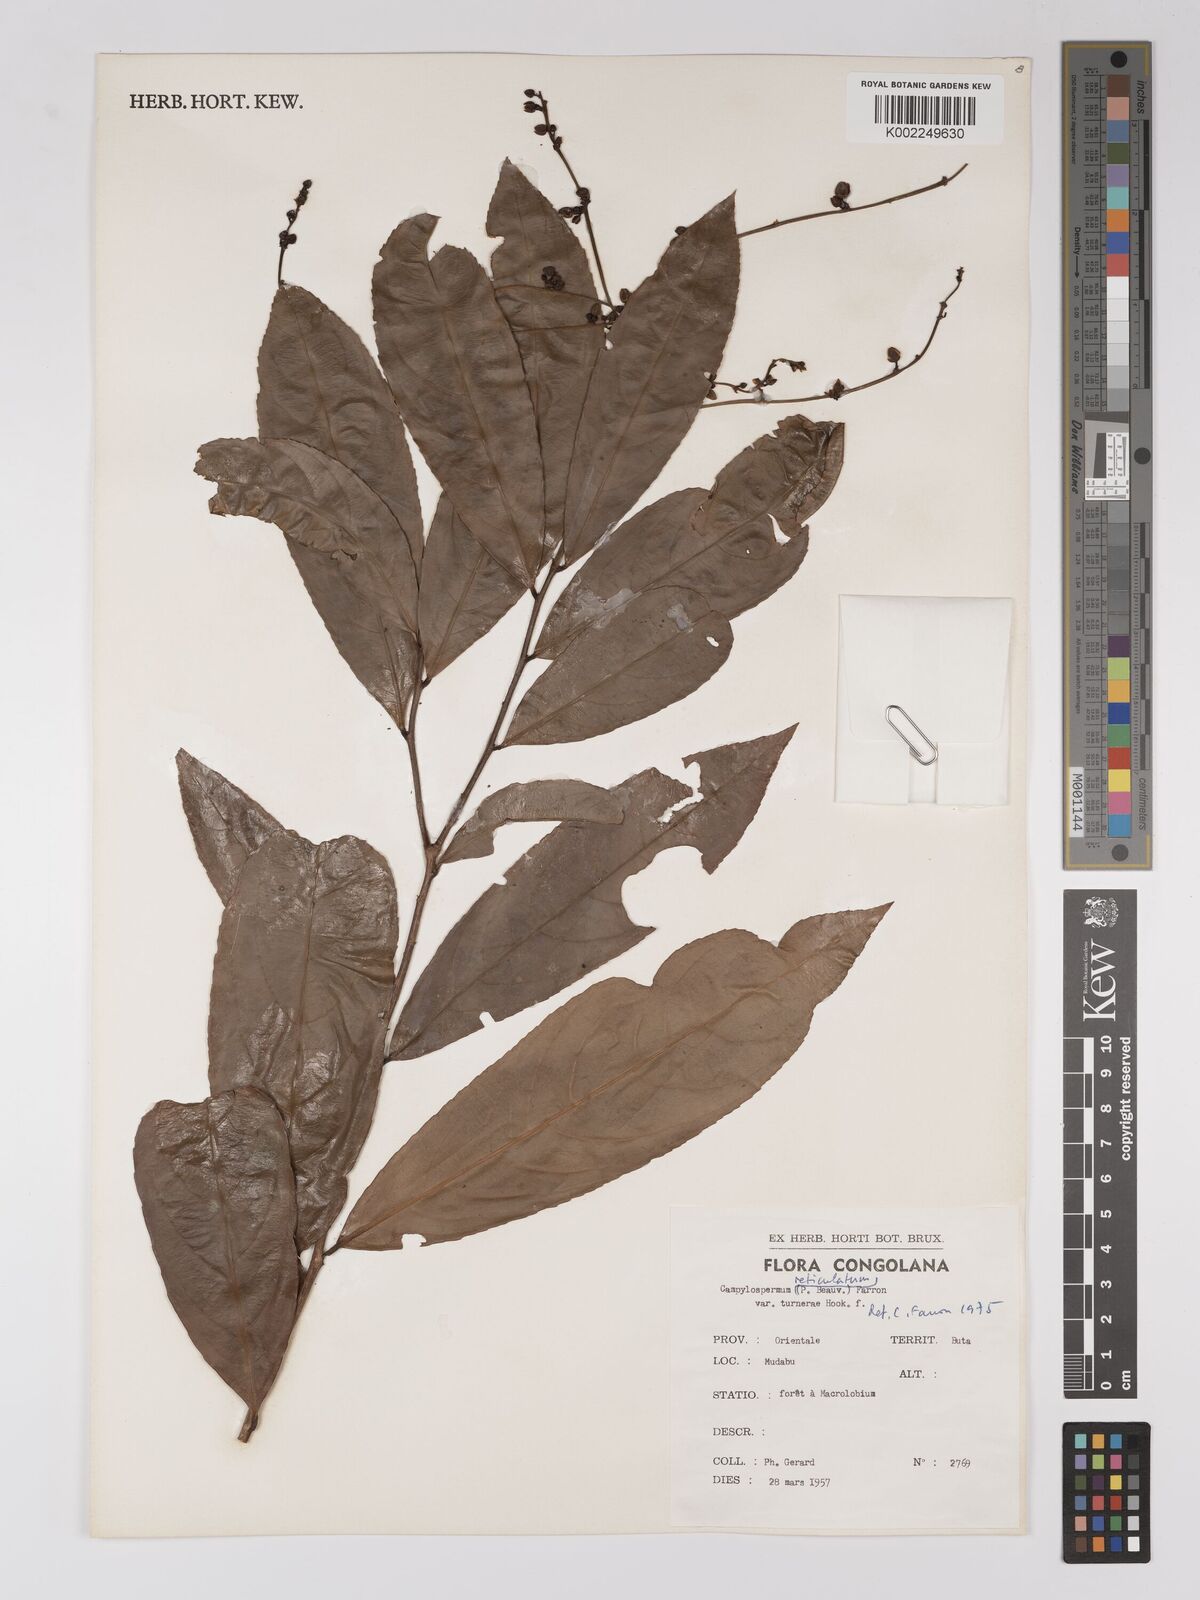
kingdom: Plantae
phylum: Tracheophyta
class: Magnoliopsida
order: Malpighiales
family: Ochnaceae
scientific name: Ochnaceae
